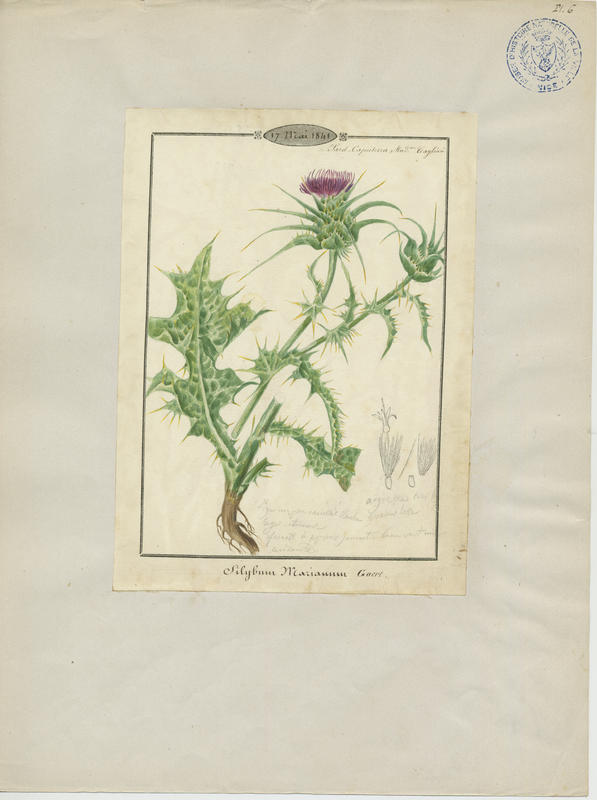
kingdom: Plantae
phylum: Tracheophyta
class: Magnoliopsida
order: Asterales
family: Asteraceae
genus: Silybum
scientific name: Silybum marianum
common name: Milk thistle
